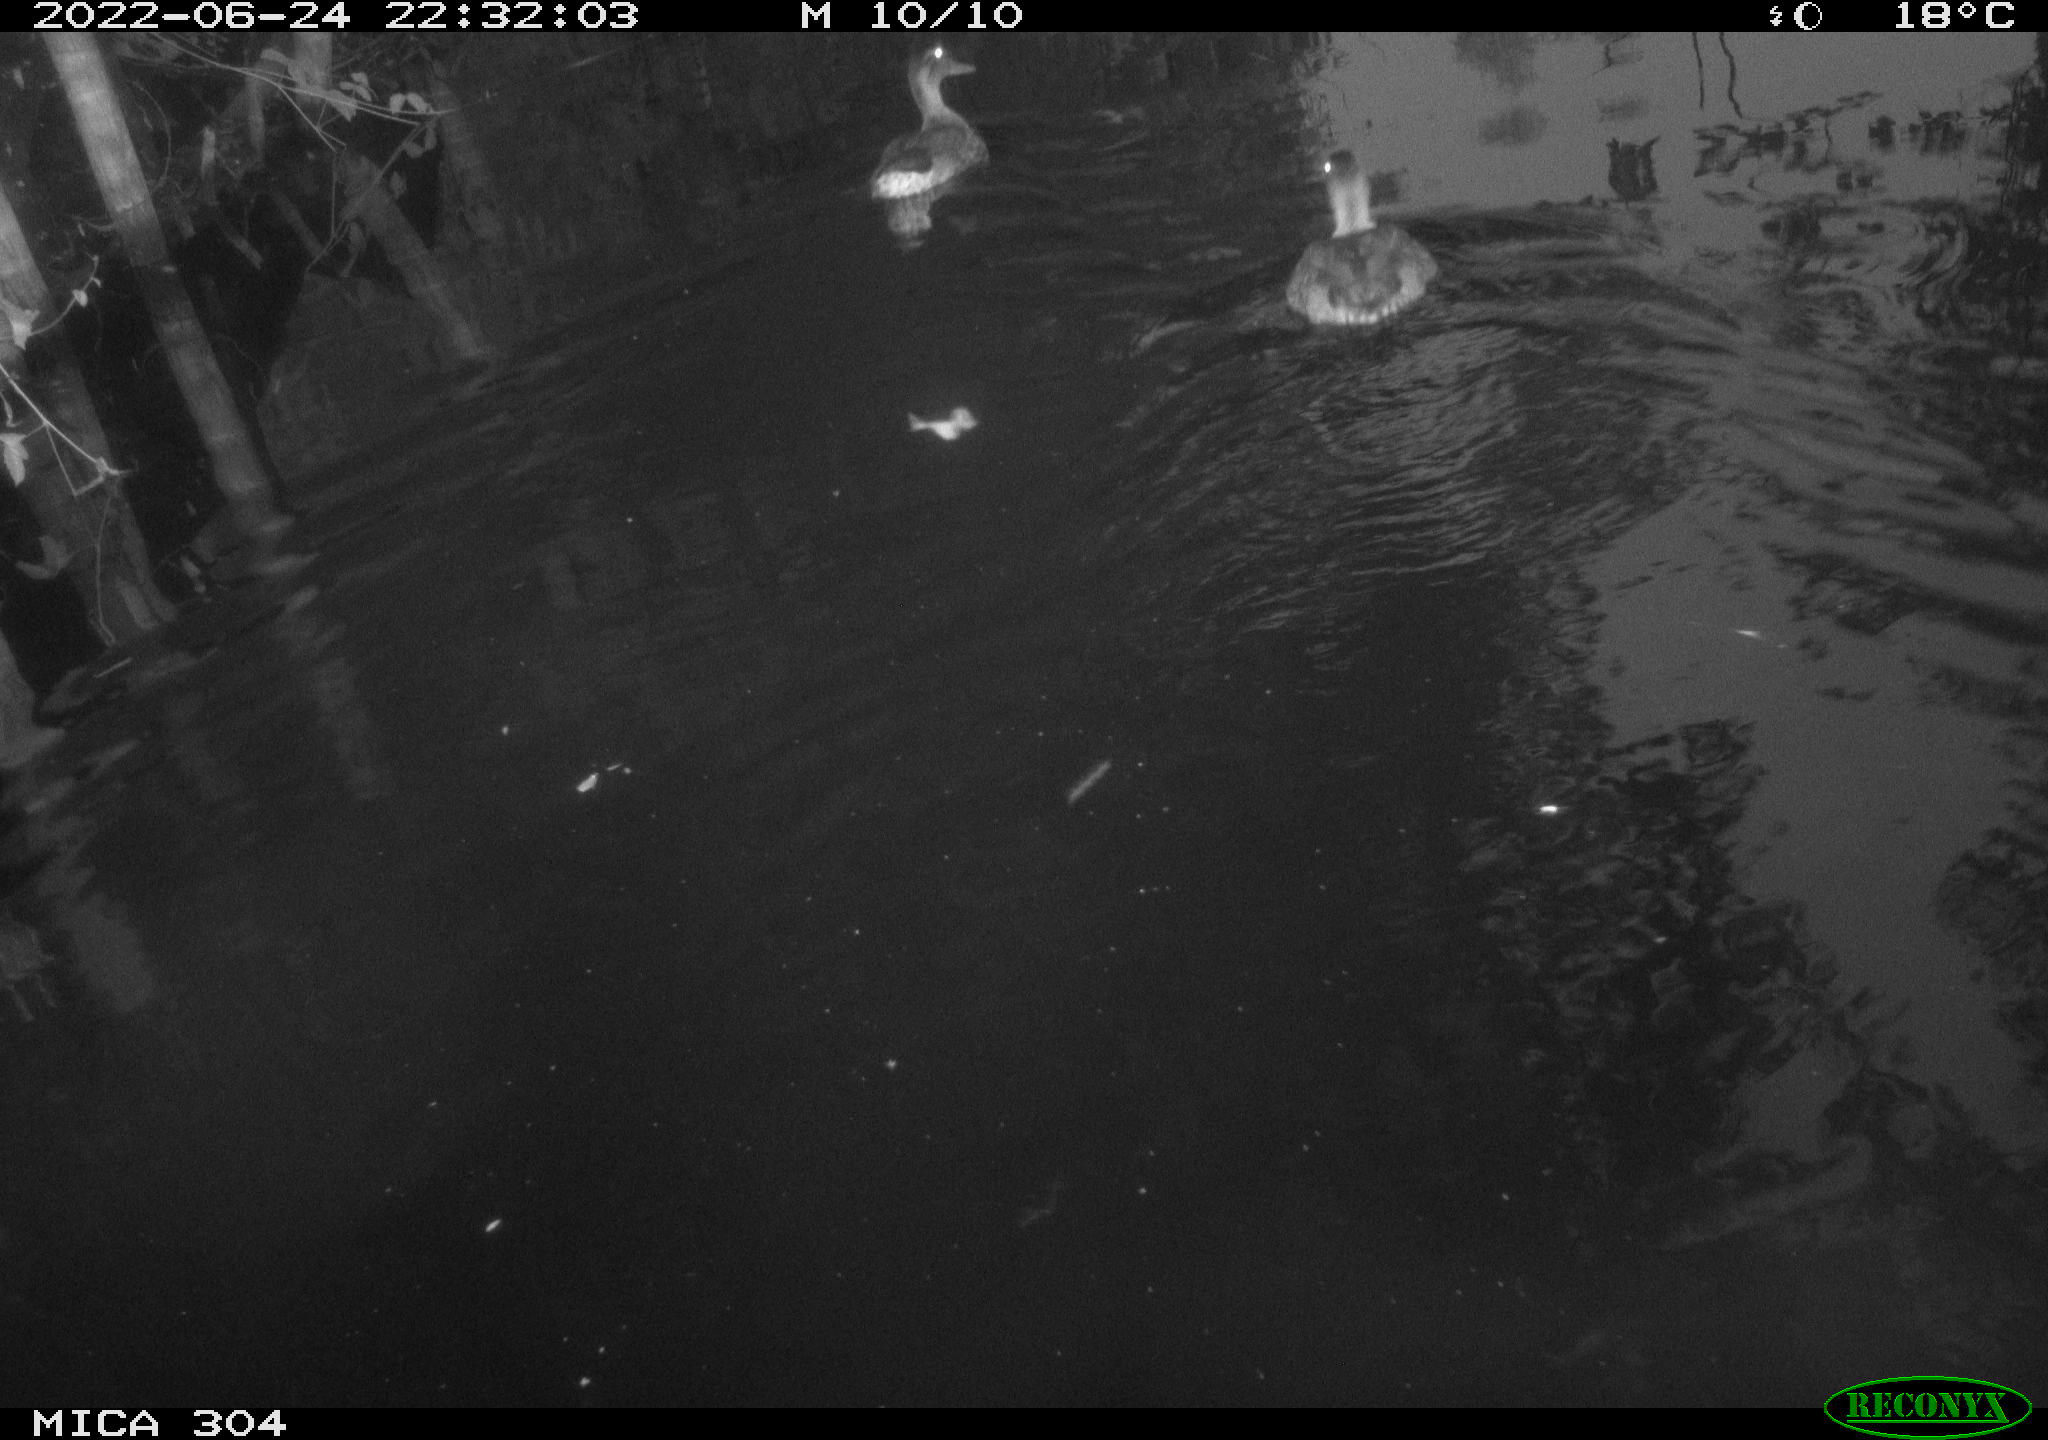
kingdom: Animalia
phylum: Chordata
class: Aves
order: Anseriformes
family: Anatidae
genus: Anas
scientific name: Anas platyrhynchos
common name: Mallard
